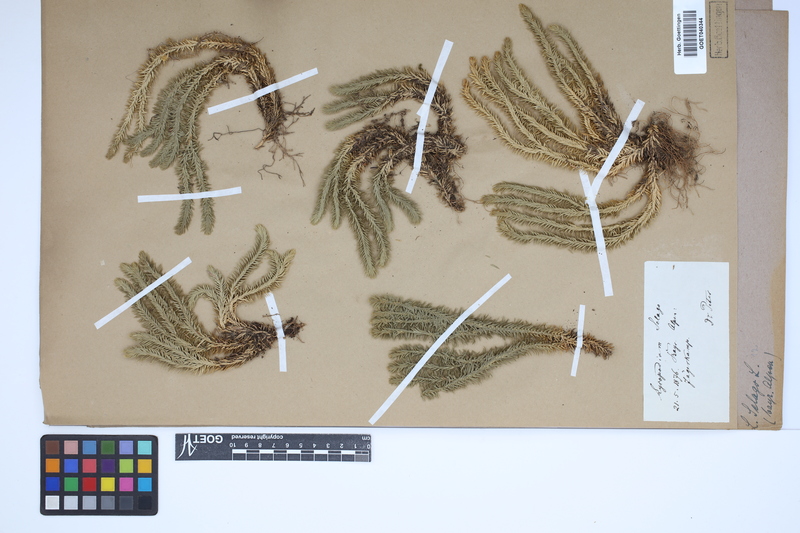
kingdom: Plantae
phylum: Tracheophyta
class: Lycopodiopsida
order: Lycopodiales
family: Lycopodiaceae
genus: Huperzia
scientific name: Huperzia selago
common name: Northern firmoss
